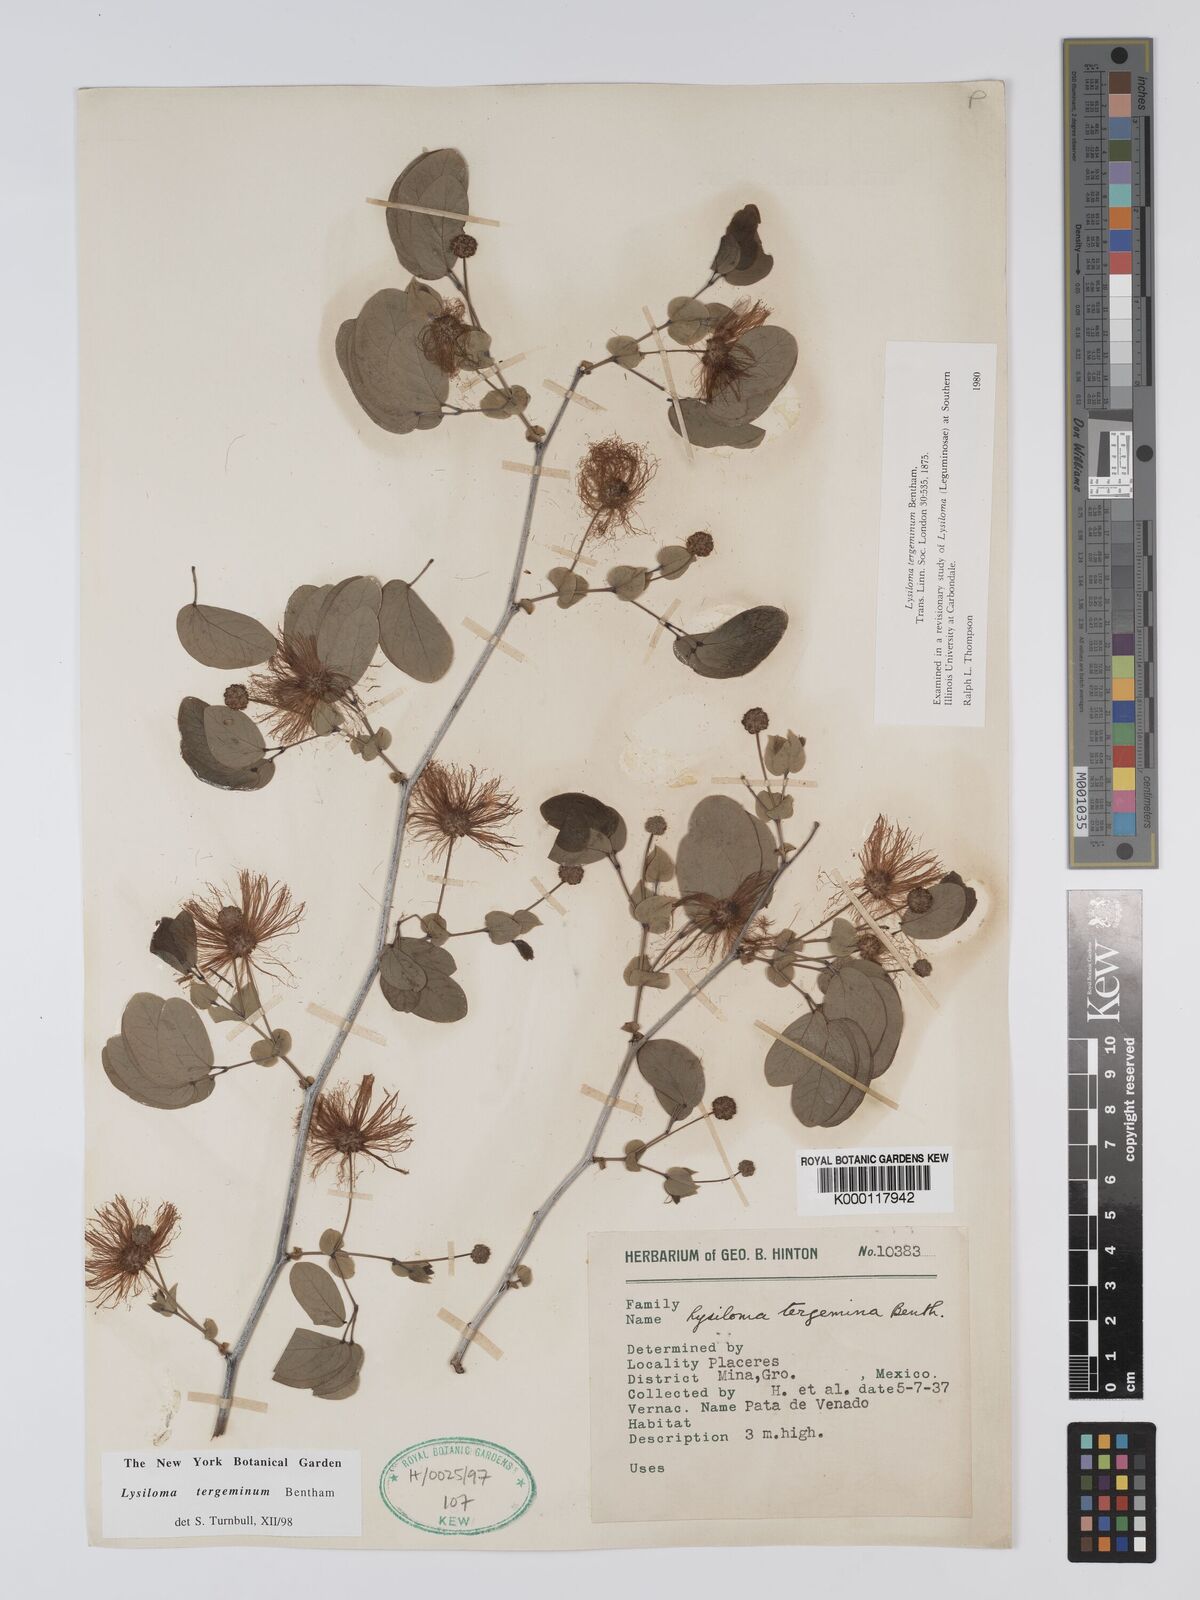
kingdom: Plantae
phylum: Tracheophyta
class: Magnoliopsida
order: Fabales
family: Fabaceae
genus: Lysiloma
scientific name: Lysiloma tergeminum
